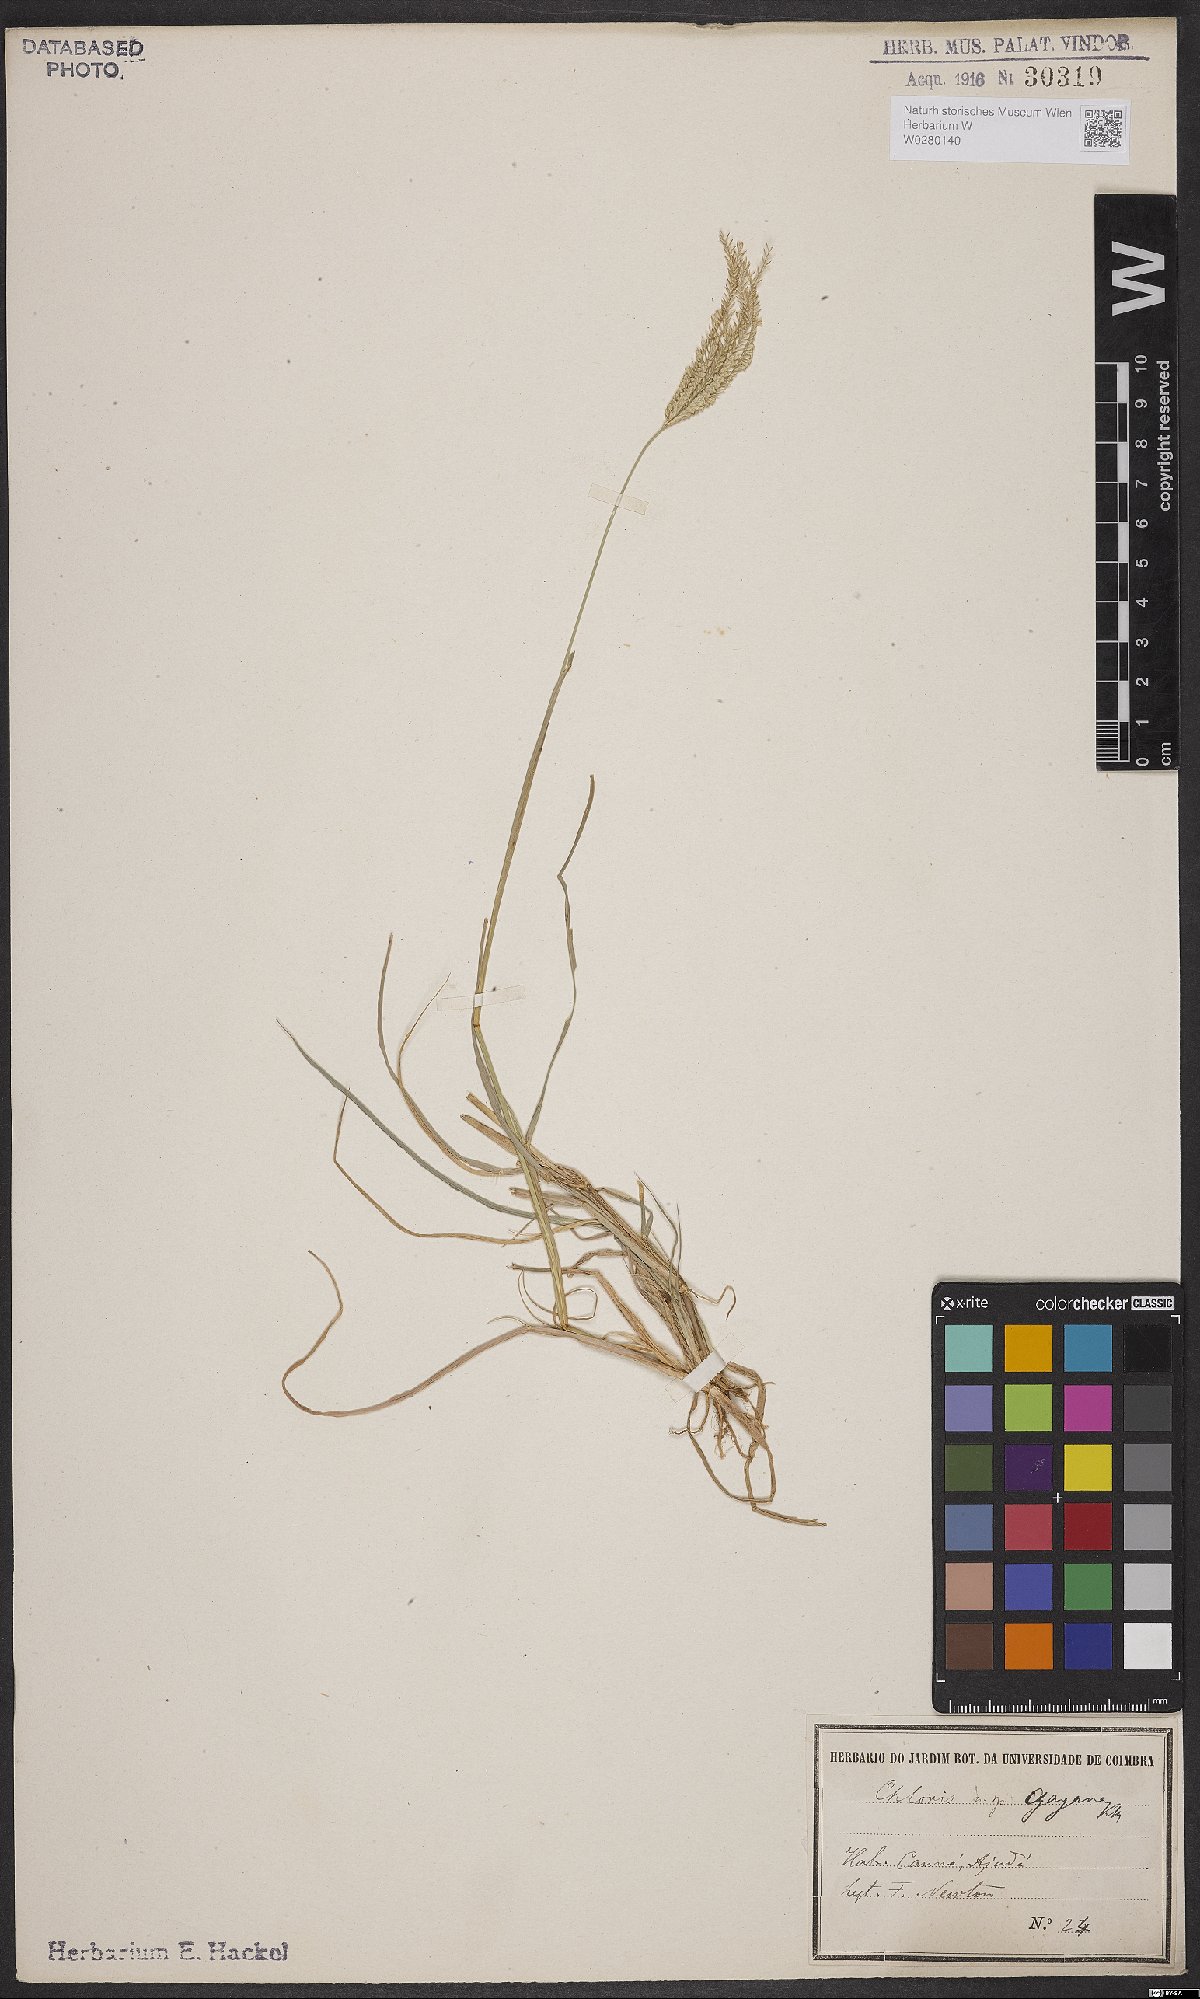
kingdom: Plantae
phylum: Tracheophyta
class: Liliopsida
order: Poales
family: Poaceae
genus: Chloris
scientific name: Chloris gayana
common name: Rhodes grass
